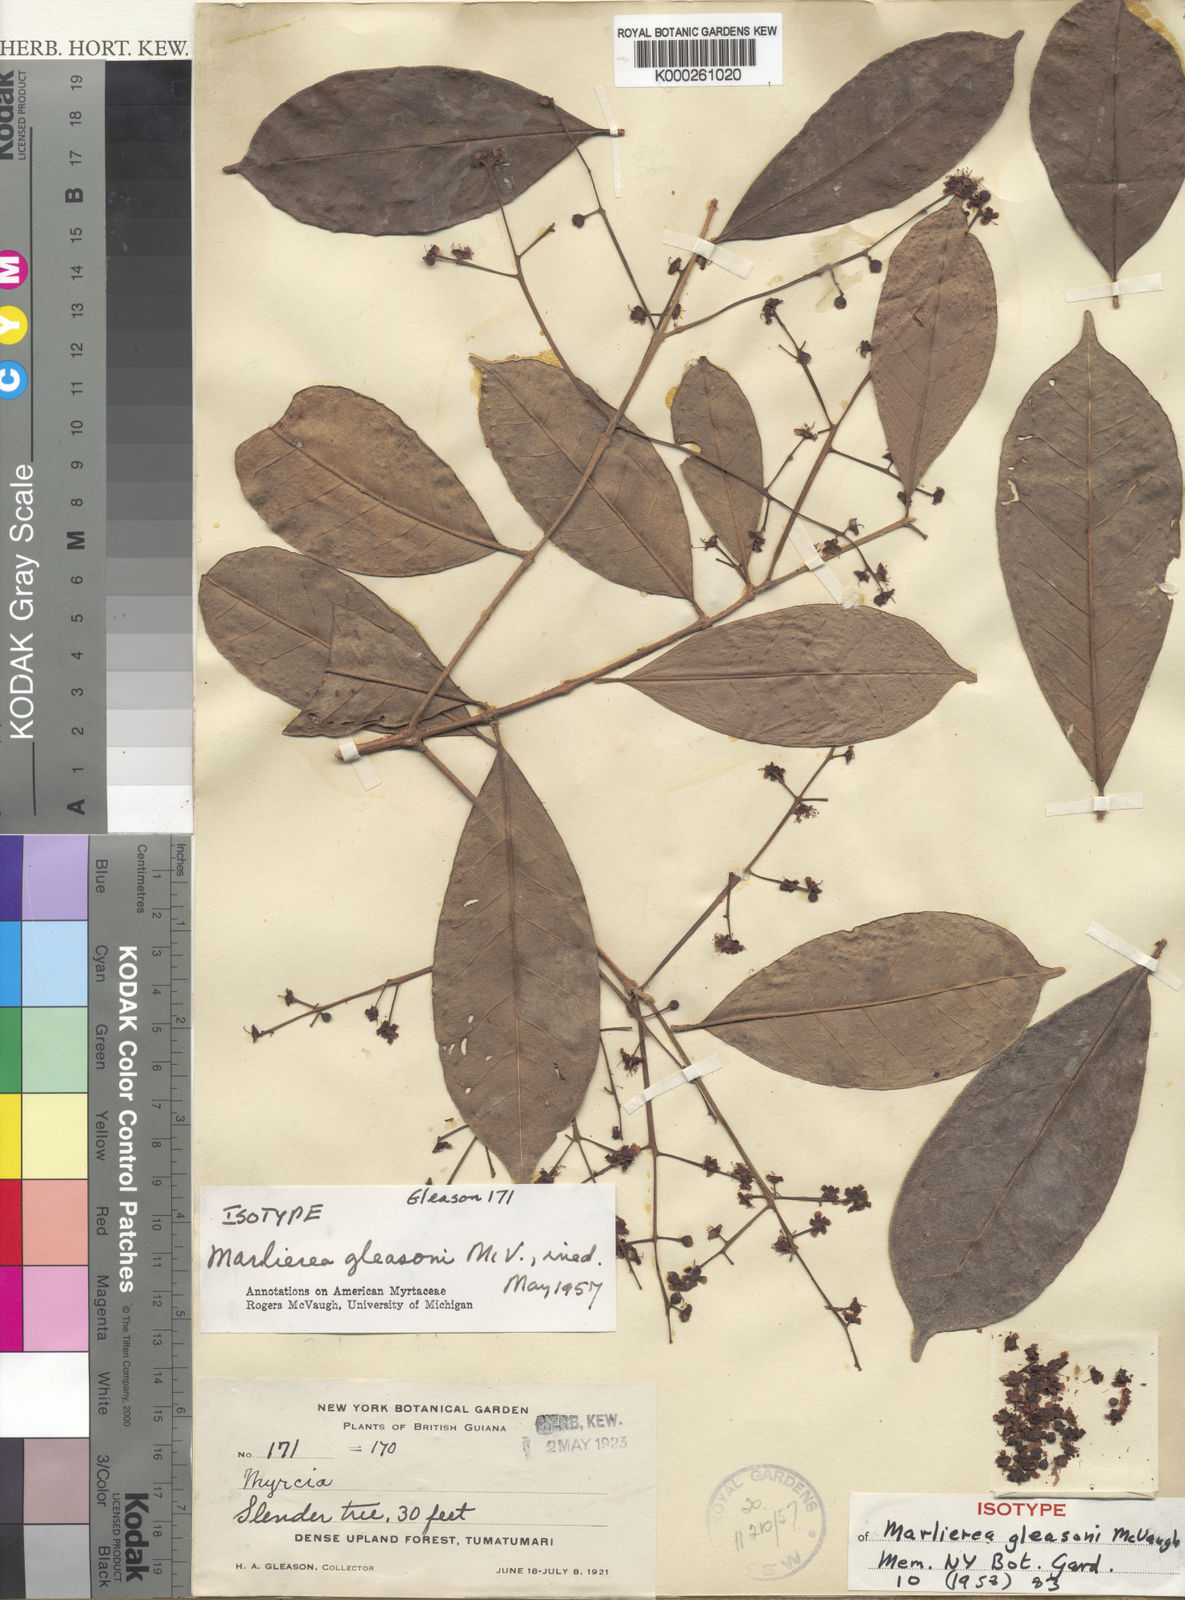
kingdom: Plantae
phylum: Tracheophyta
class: Magnoliopsida
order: Myrtales
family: Myrtaceae
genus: Myrcia
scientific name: Myrcia decorticans
